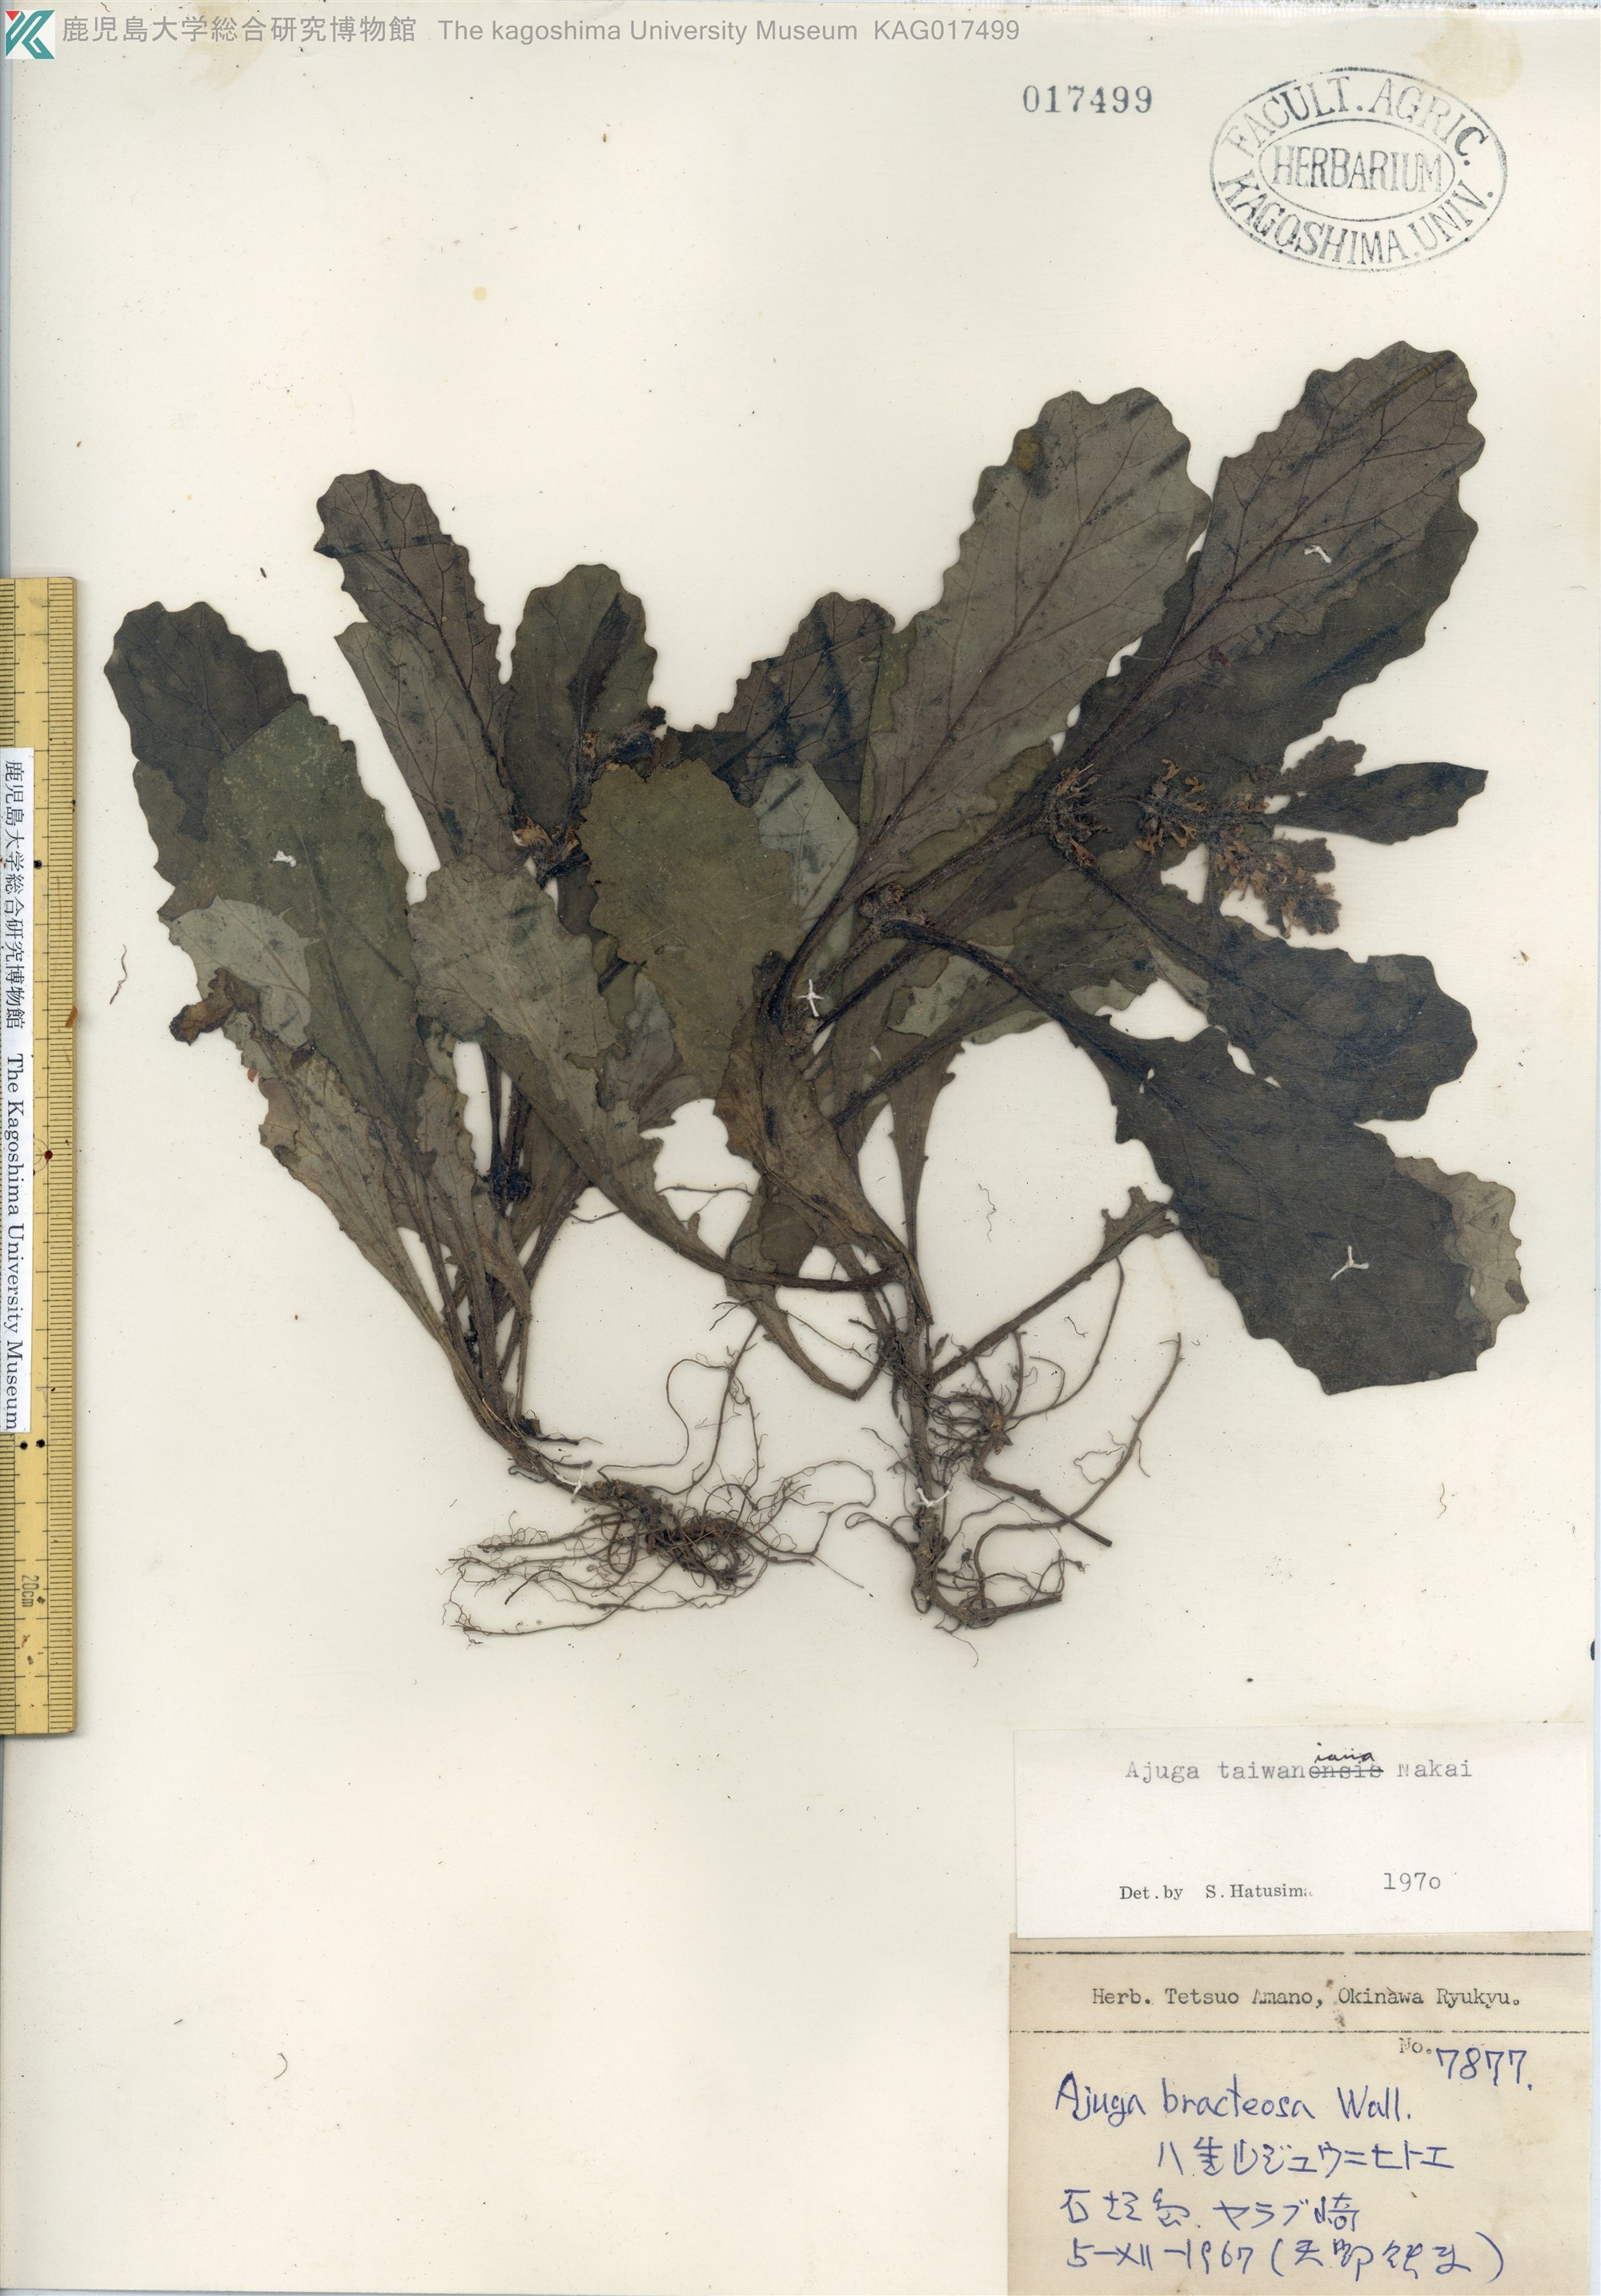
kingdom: Plantae
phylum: Tracheophyta
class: Magnoliopsida
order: Lamiales
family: Lamiaceae
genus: Ajuga
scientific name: Ajuga taiwanensis
